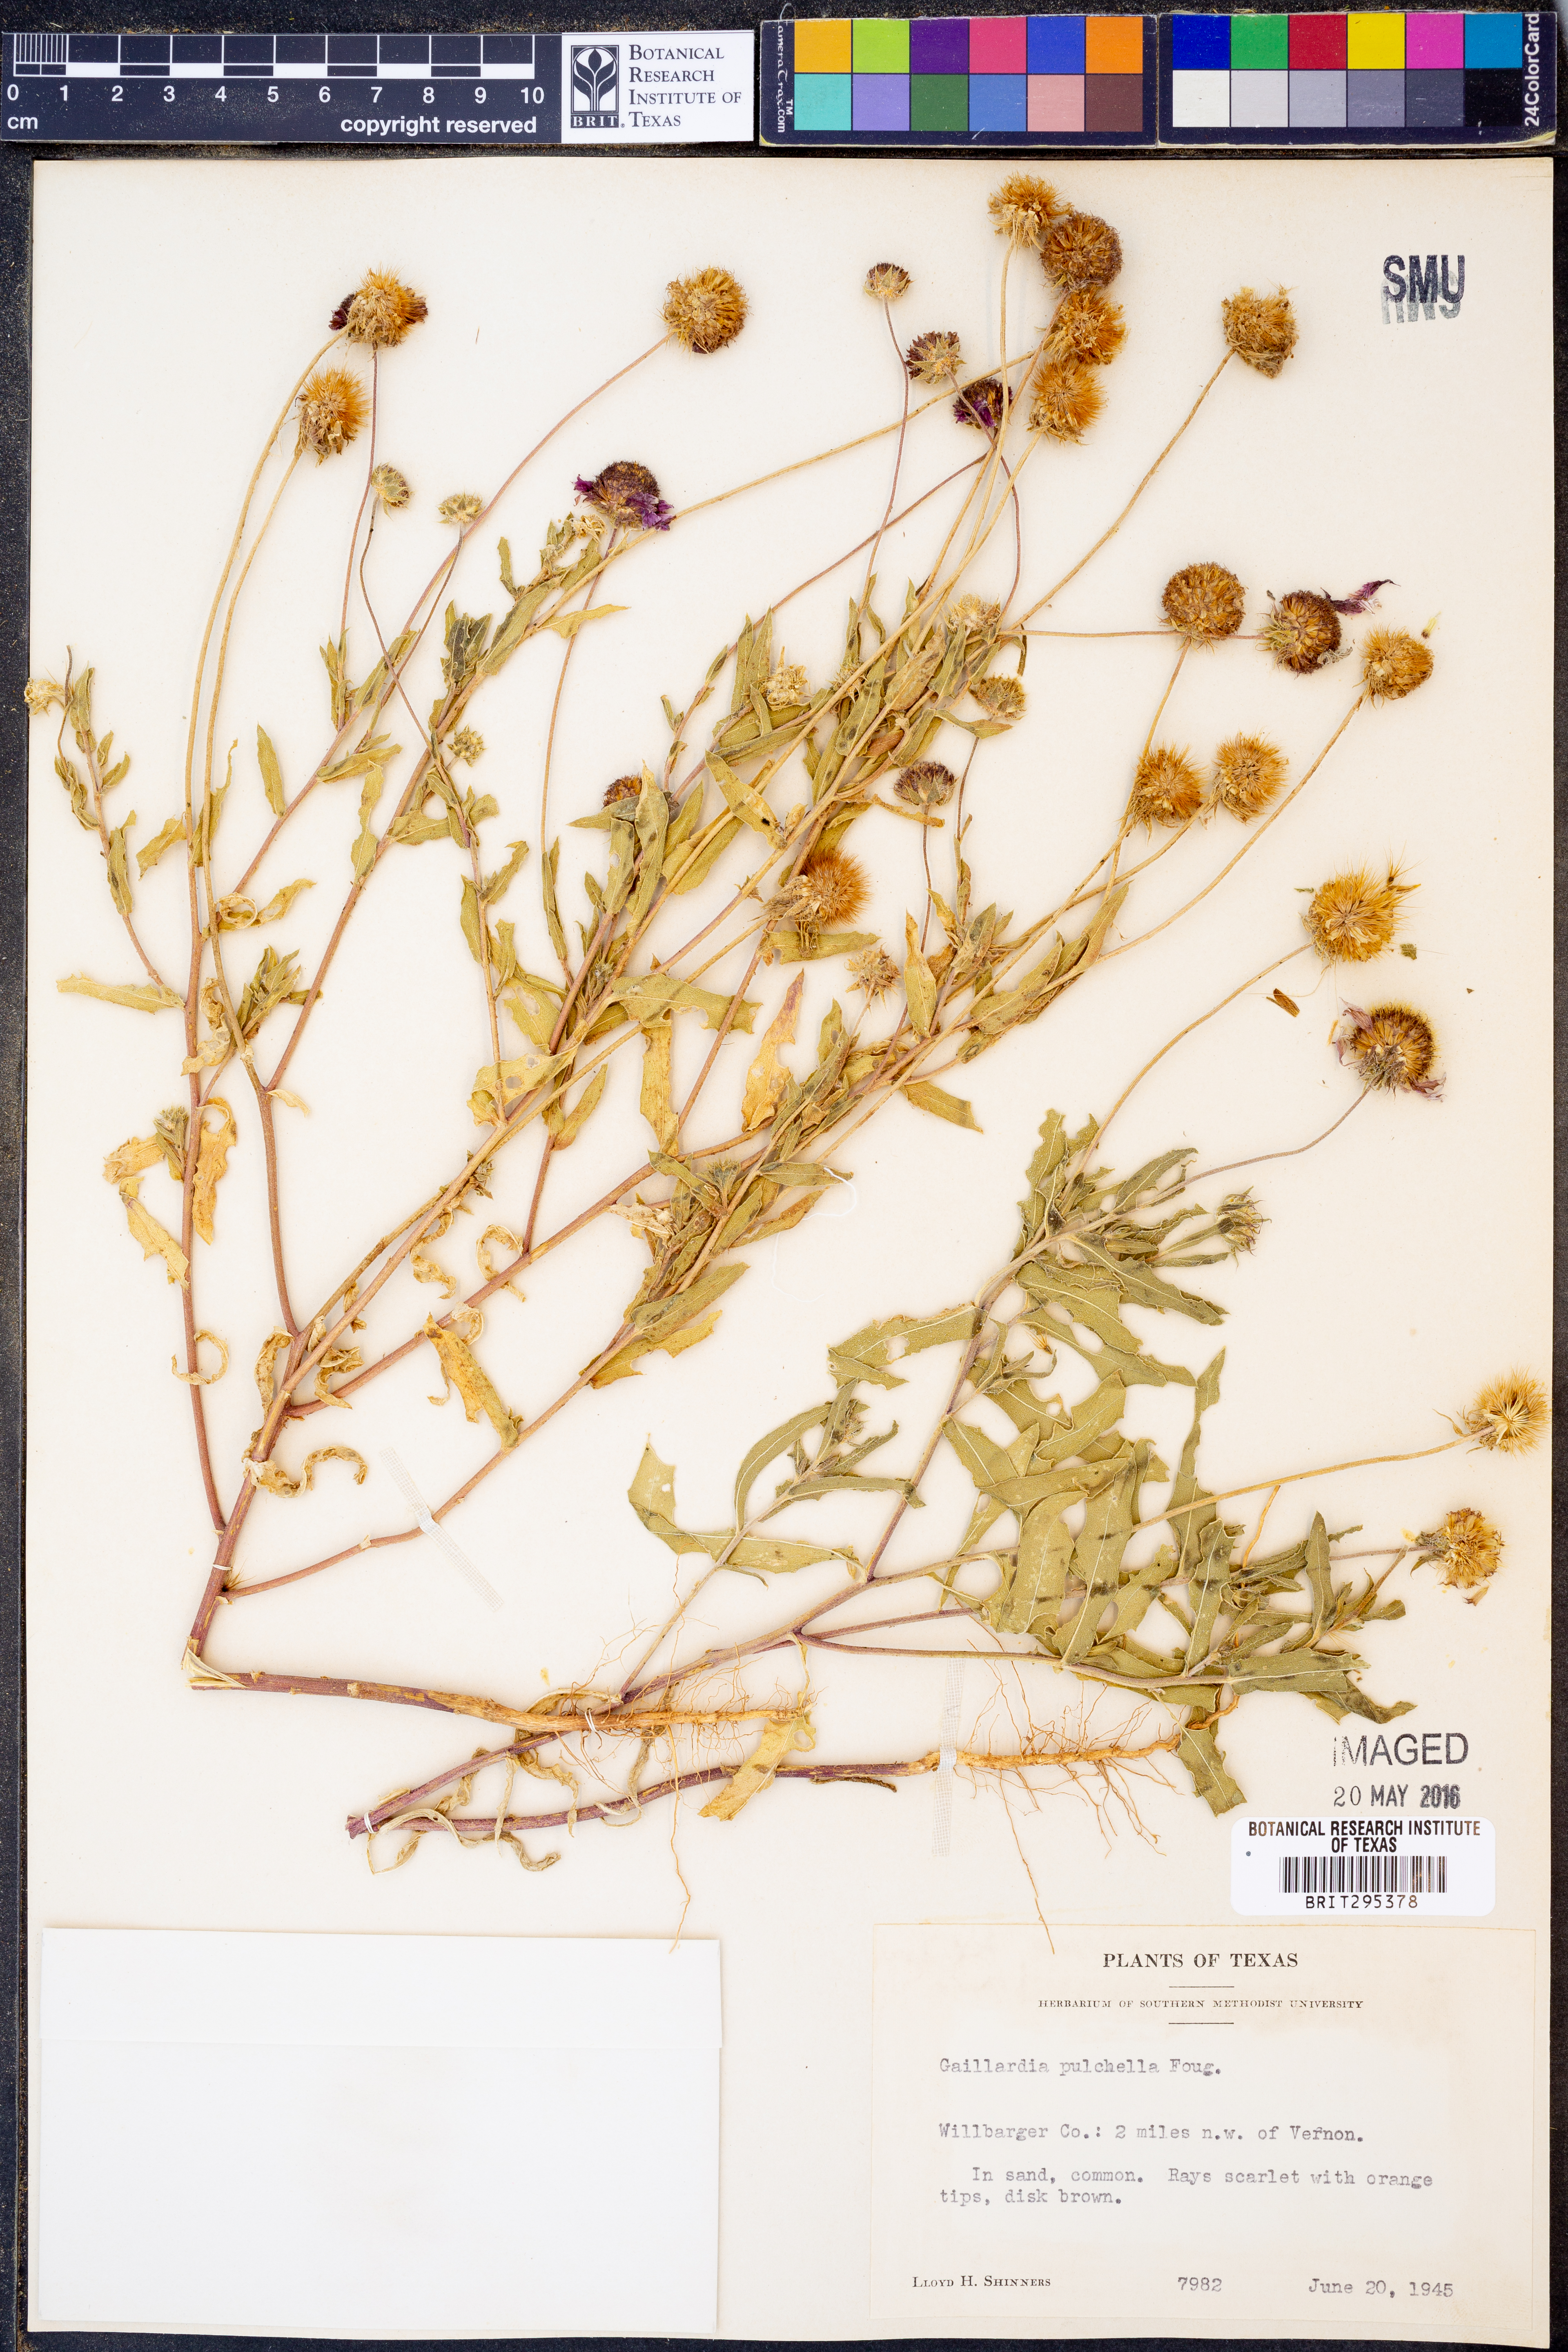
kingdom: Plantae
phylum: Tracheophyta
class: Magnoliopsida
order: Asterales
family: Asteraceae
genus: Gaillardia
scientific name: Gaillardia pulchella
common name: Firewheel
